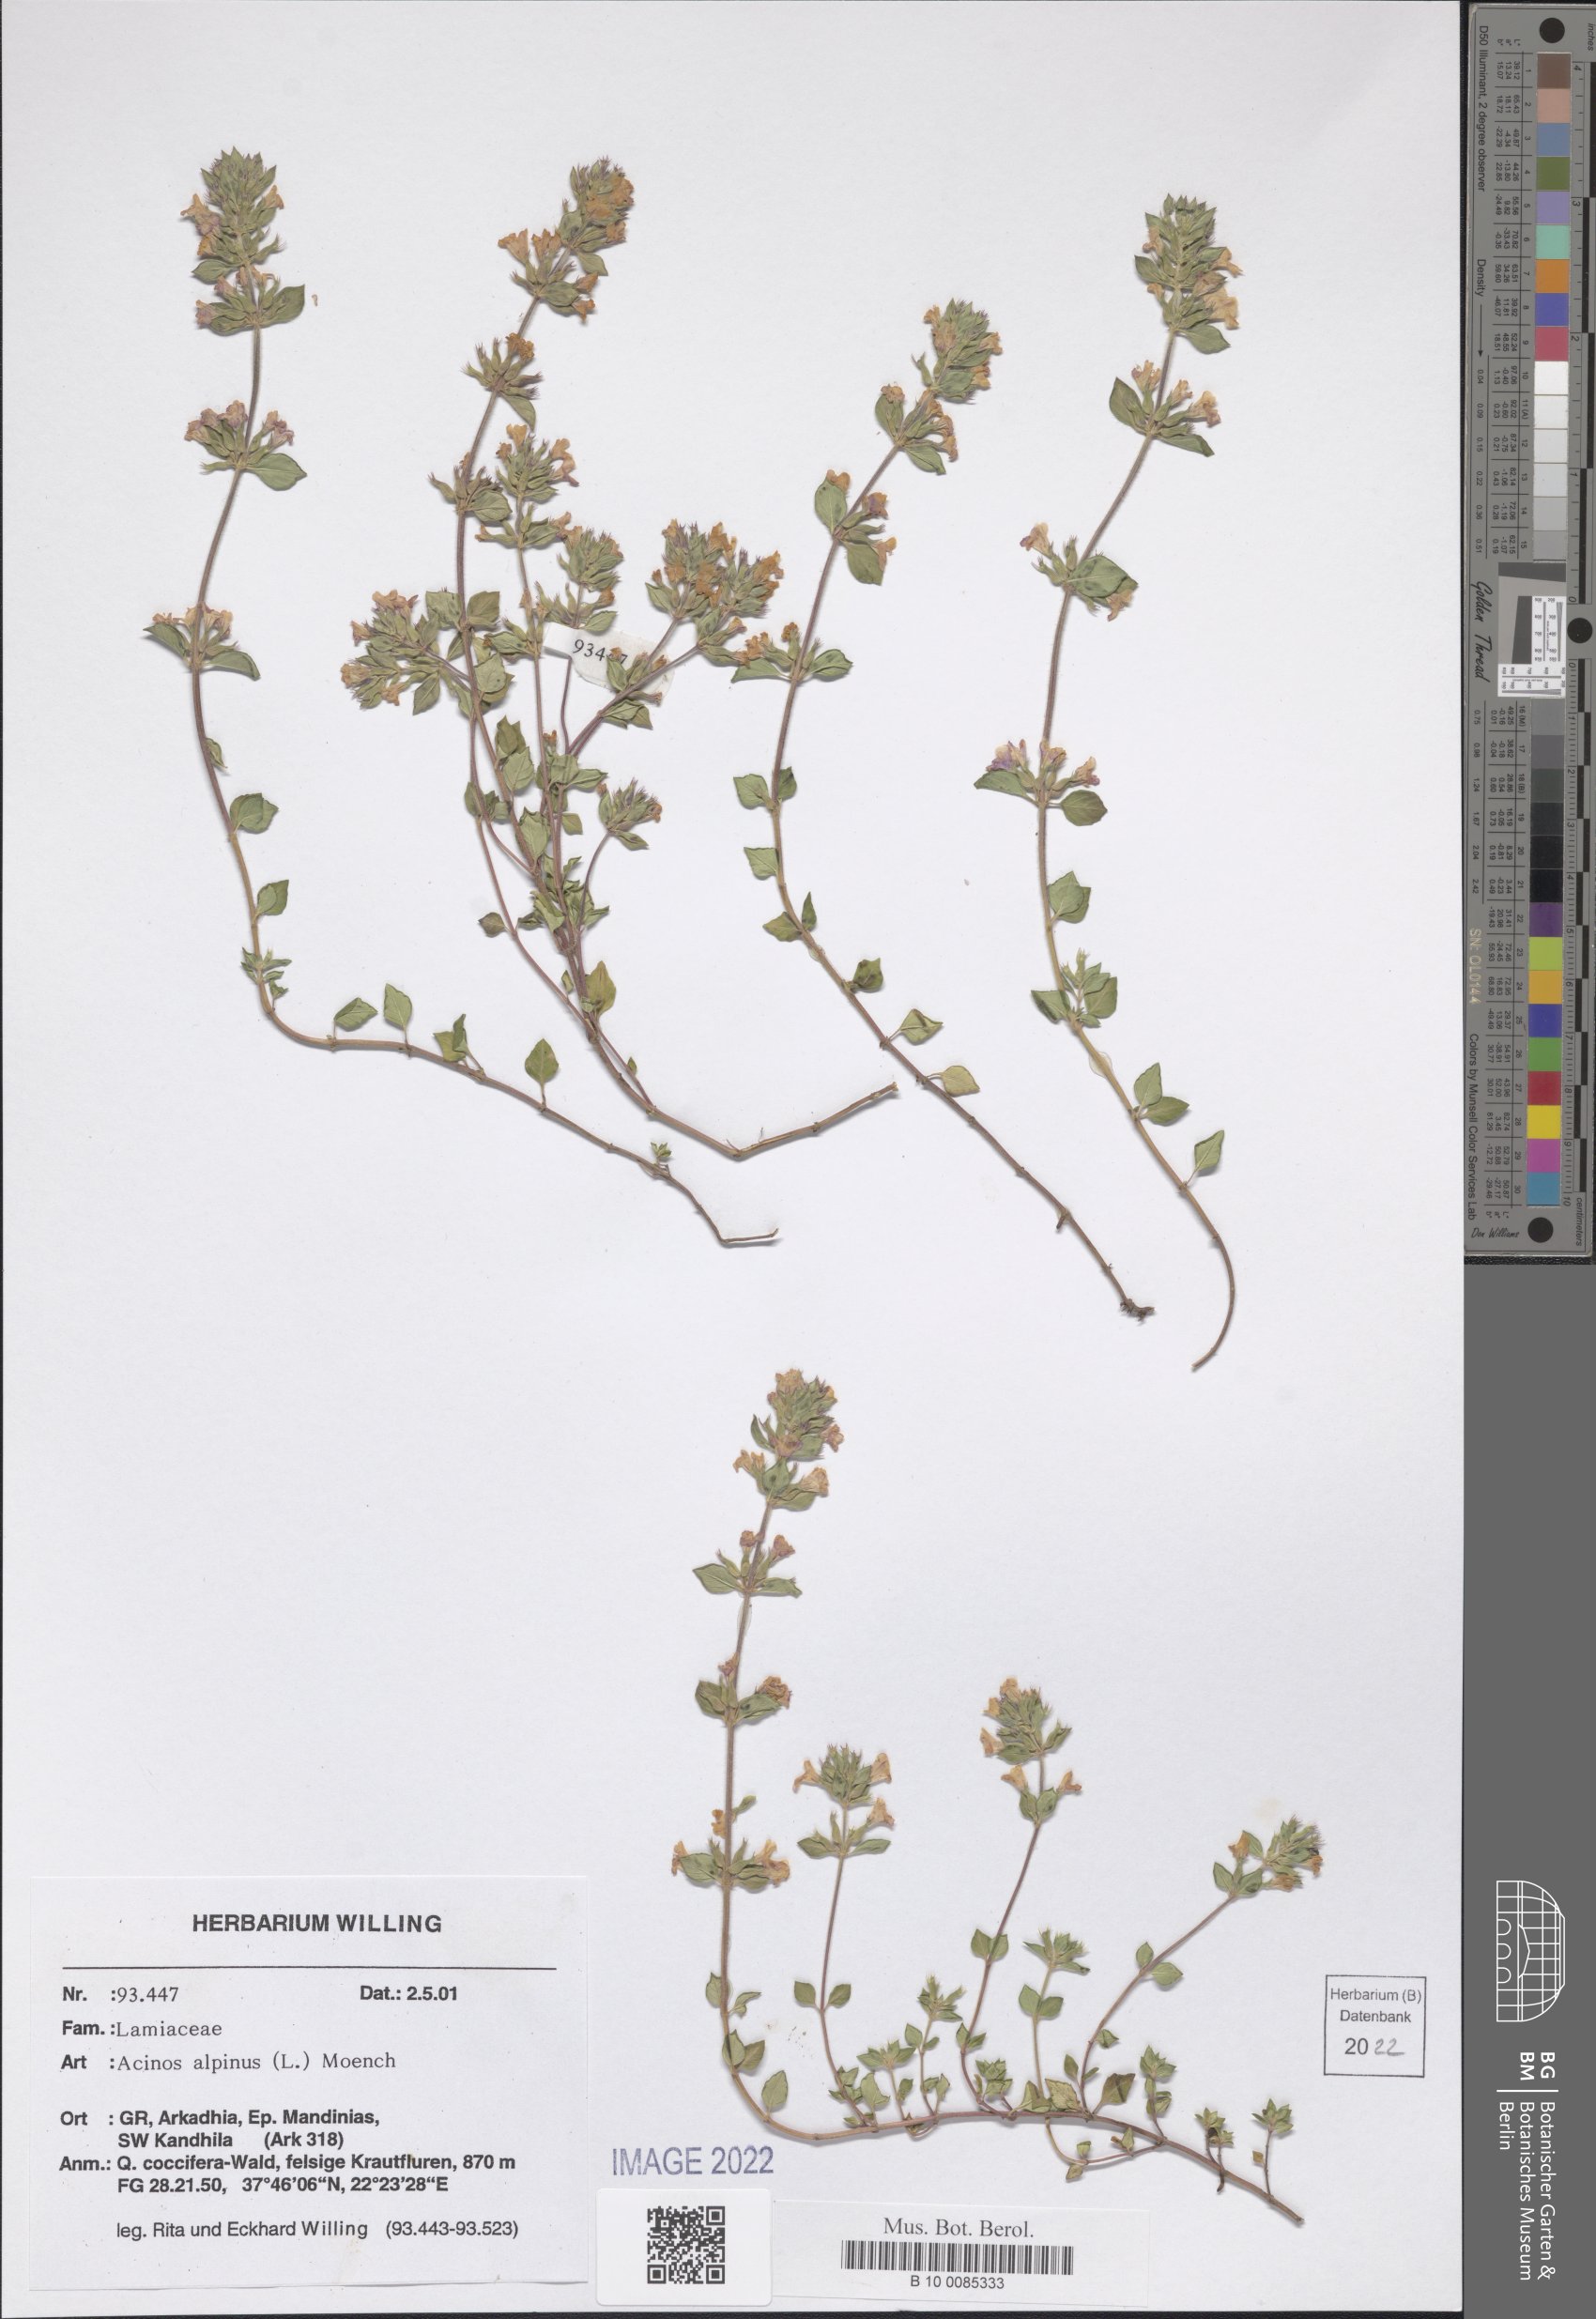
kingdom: Plantae
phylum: Tracheophyta
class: Magnoliopsida
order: Lamiales
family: Lamiaceae
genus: Clinopodium
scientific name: Clinopodium alpinum
